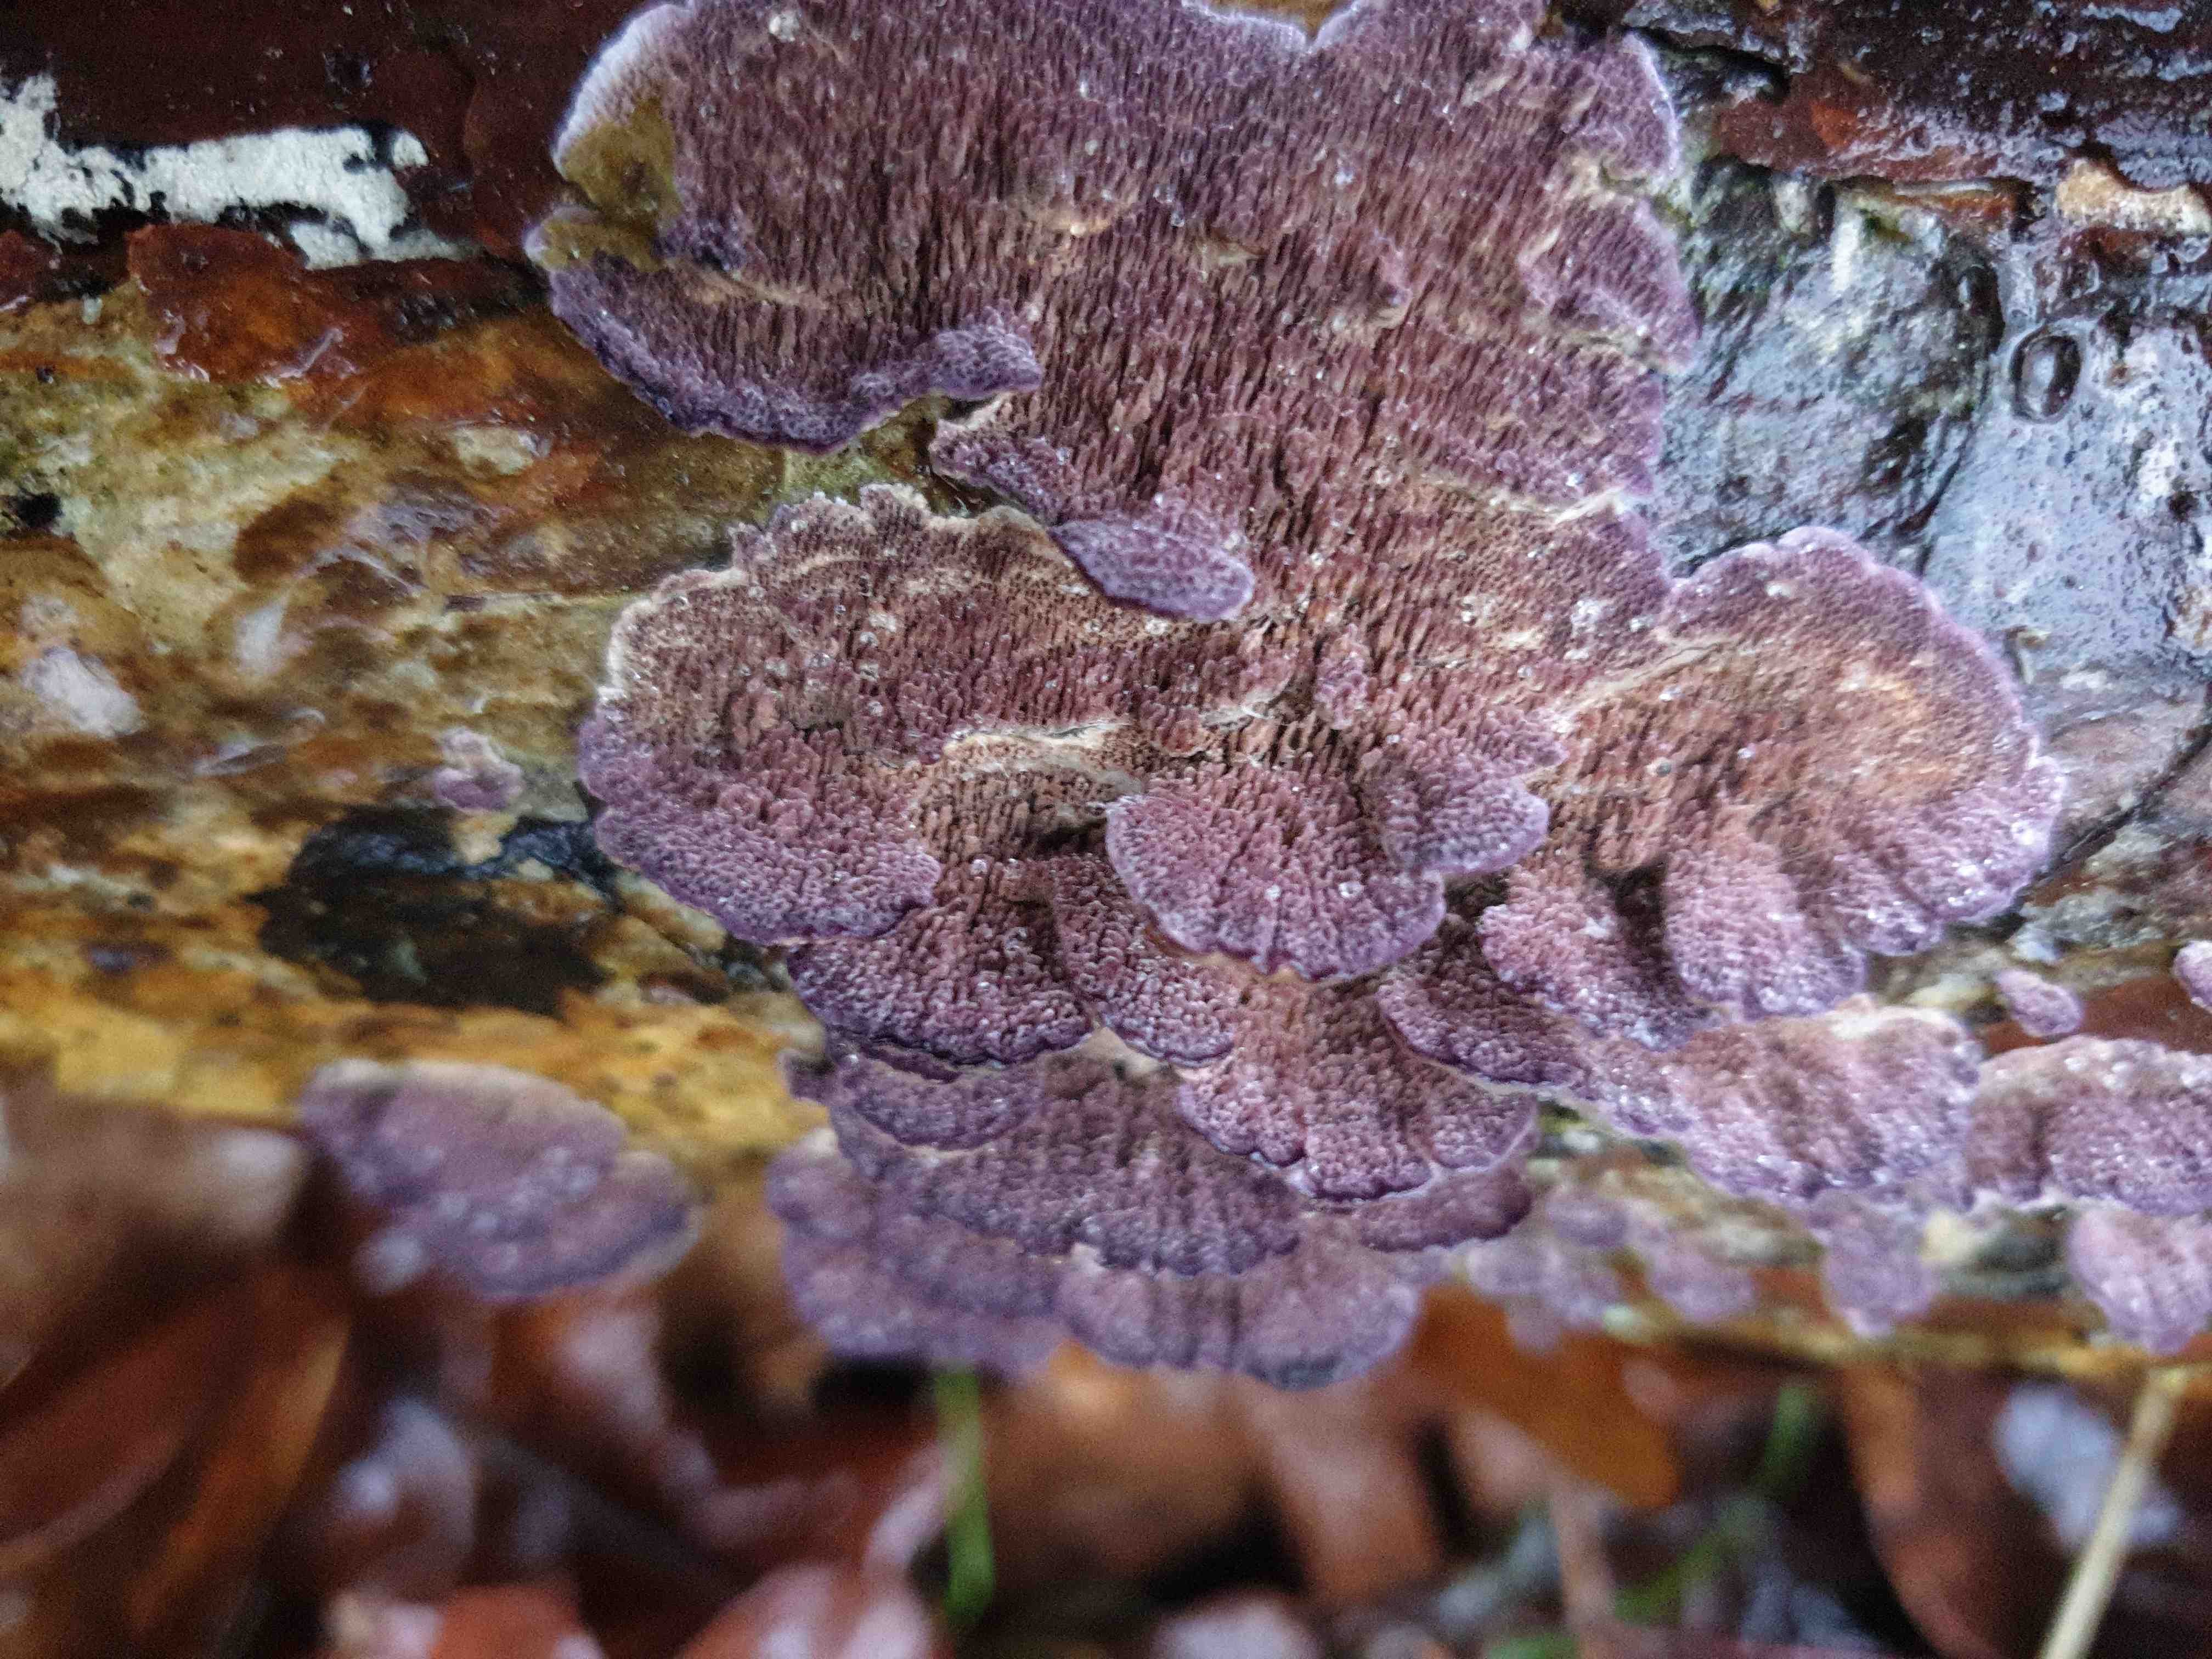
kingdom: Fungi
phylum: Basidiomycota
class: Agaricomycetes
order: Hymenochaetales
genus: Trichaptum
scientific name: Trichaptum fuscoviolaceum
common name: tandet violporesvamp
